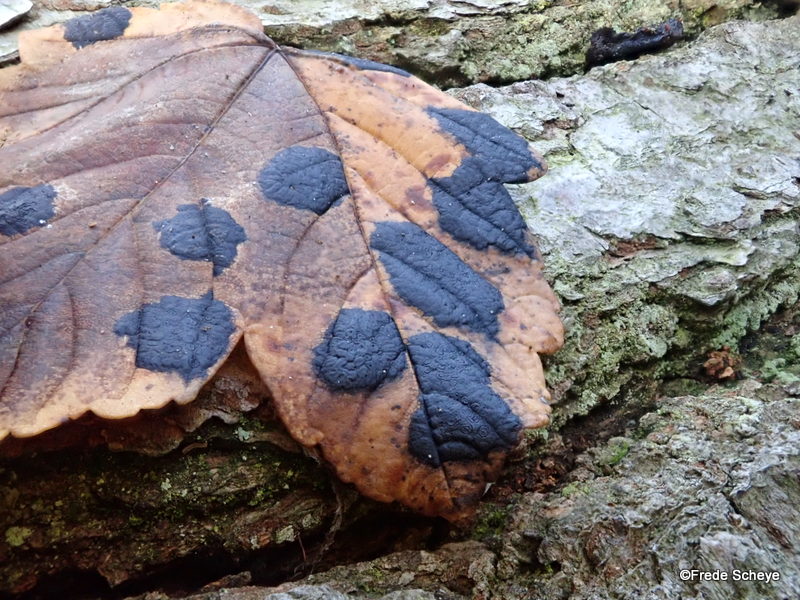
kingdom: Fungi
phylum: Ascomycota
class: Leotiomycetes
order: Rhytismatales
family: Rhytismataceae
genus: Rhytisma
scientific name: Rhytisma acerinum
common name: ahorn-rynkeplet
